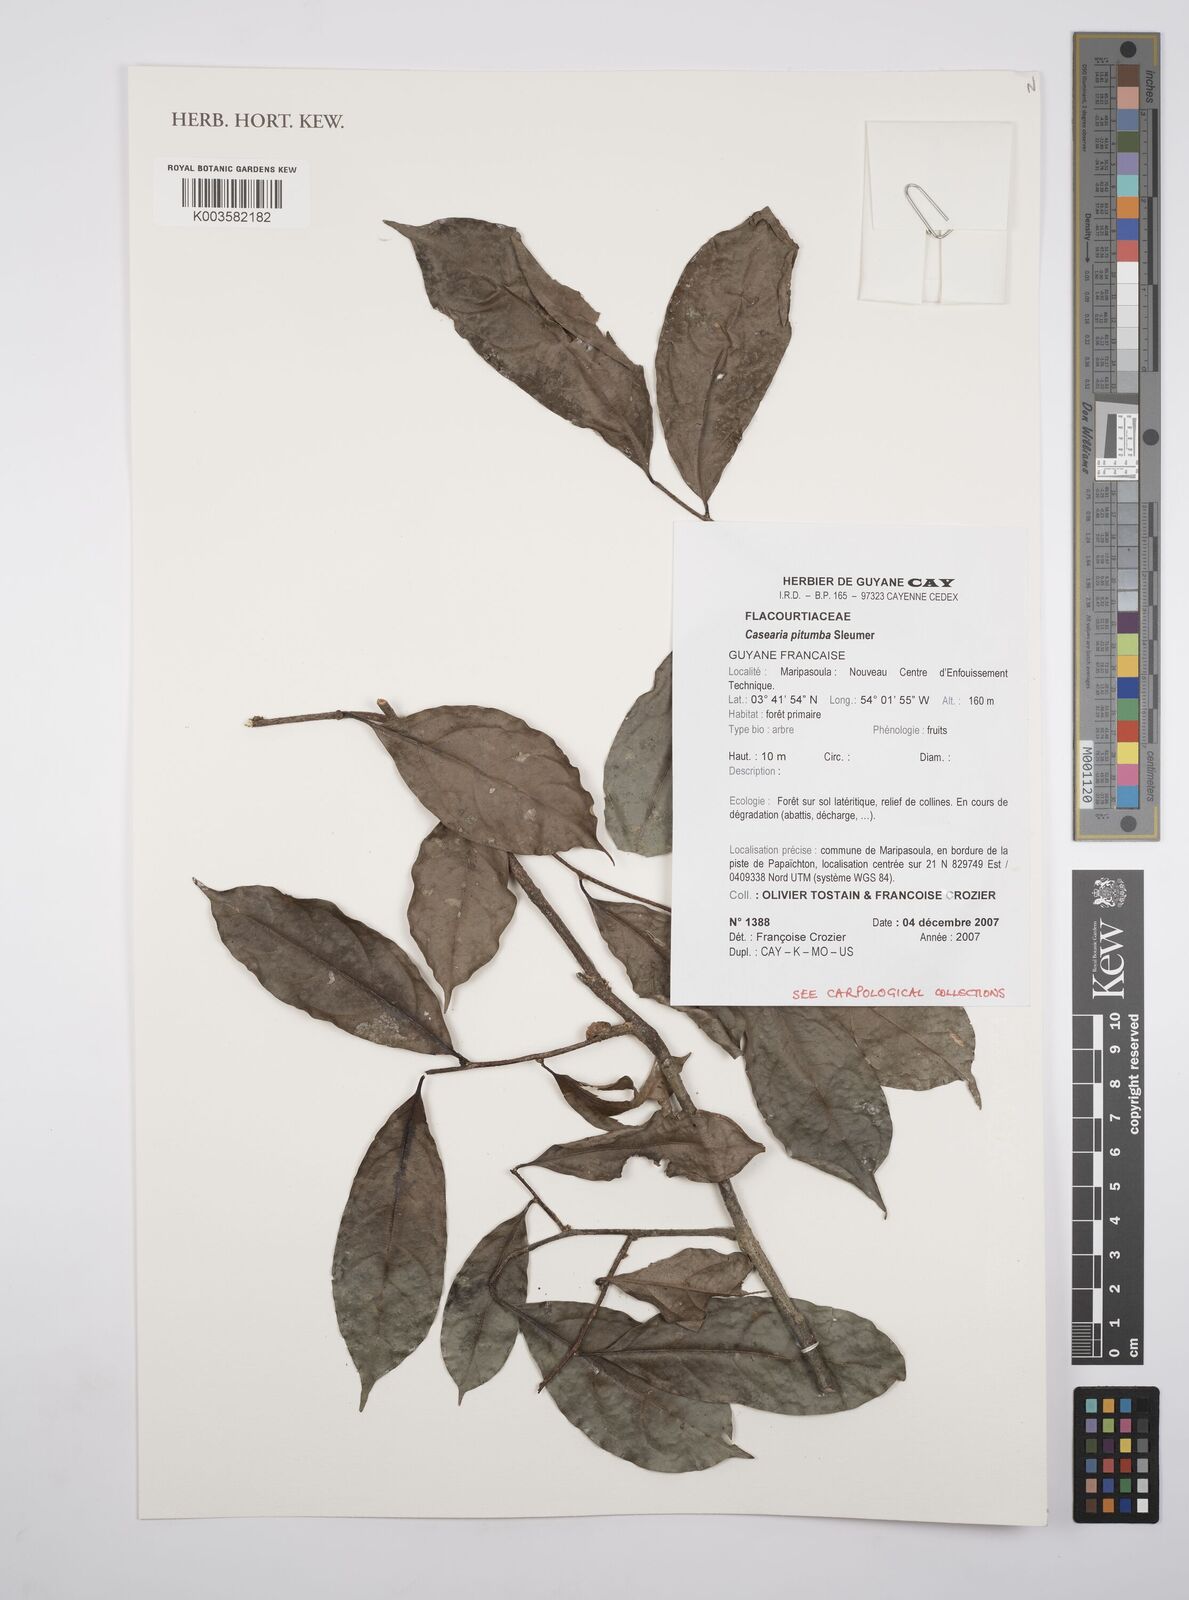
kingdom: Plantae
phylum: Tracheophyta
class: Magnoliopsida
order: Malpighiales
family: Salicaceae
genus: Casearia
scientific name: Casearia pitumba
